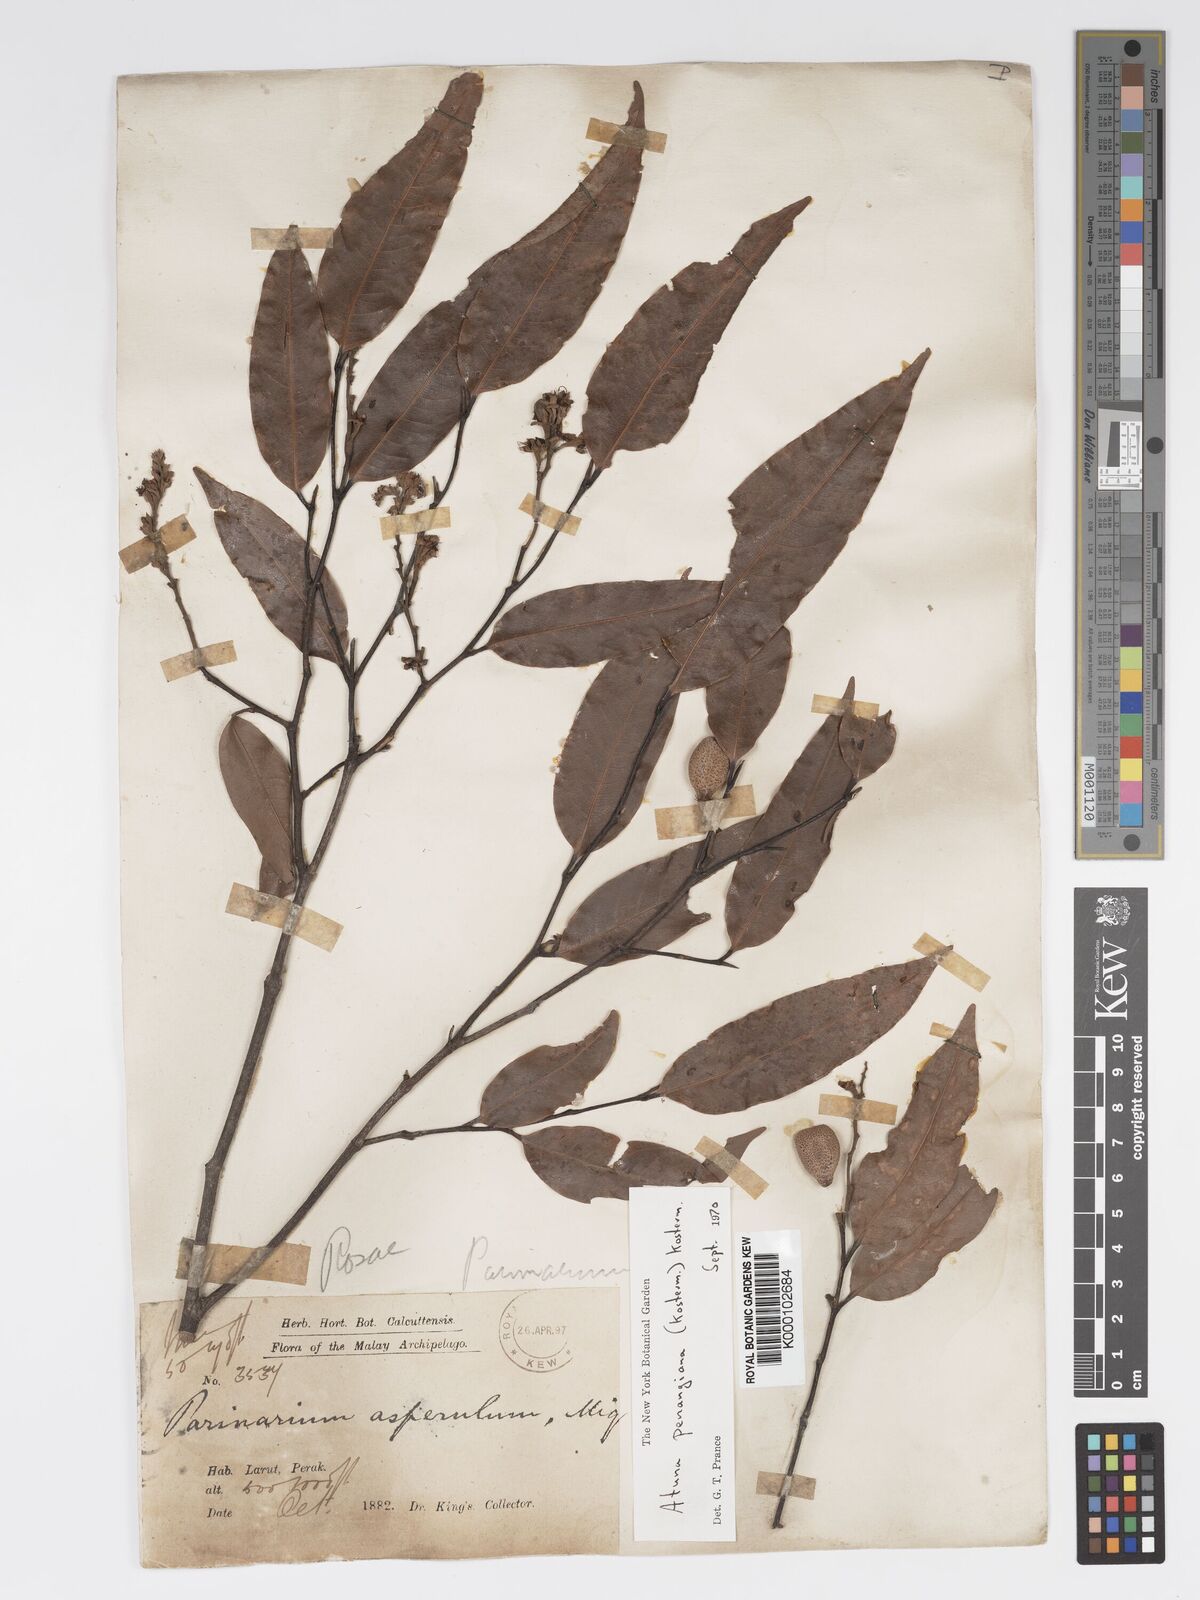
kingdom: Plantae
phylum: Tracheophyta
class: Magnoliopsida
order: Malpighiales
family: Chrysobalanaceae
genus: Atuna
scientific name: Atuna penangiana
